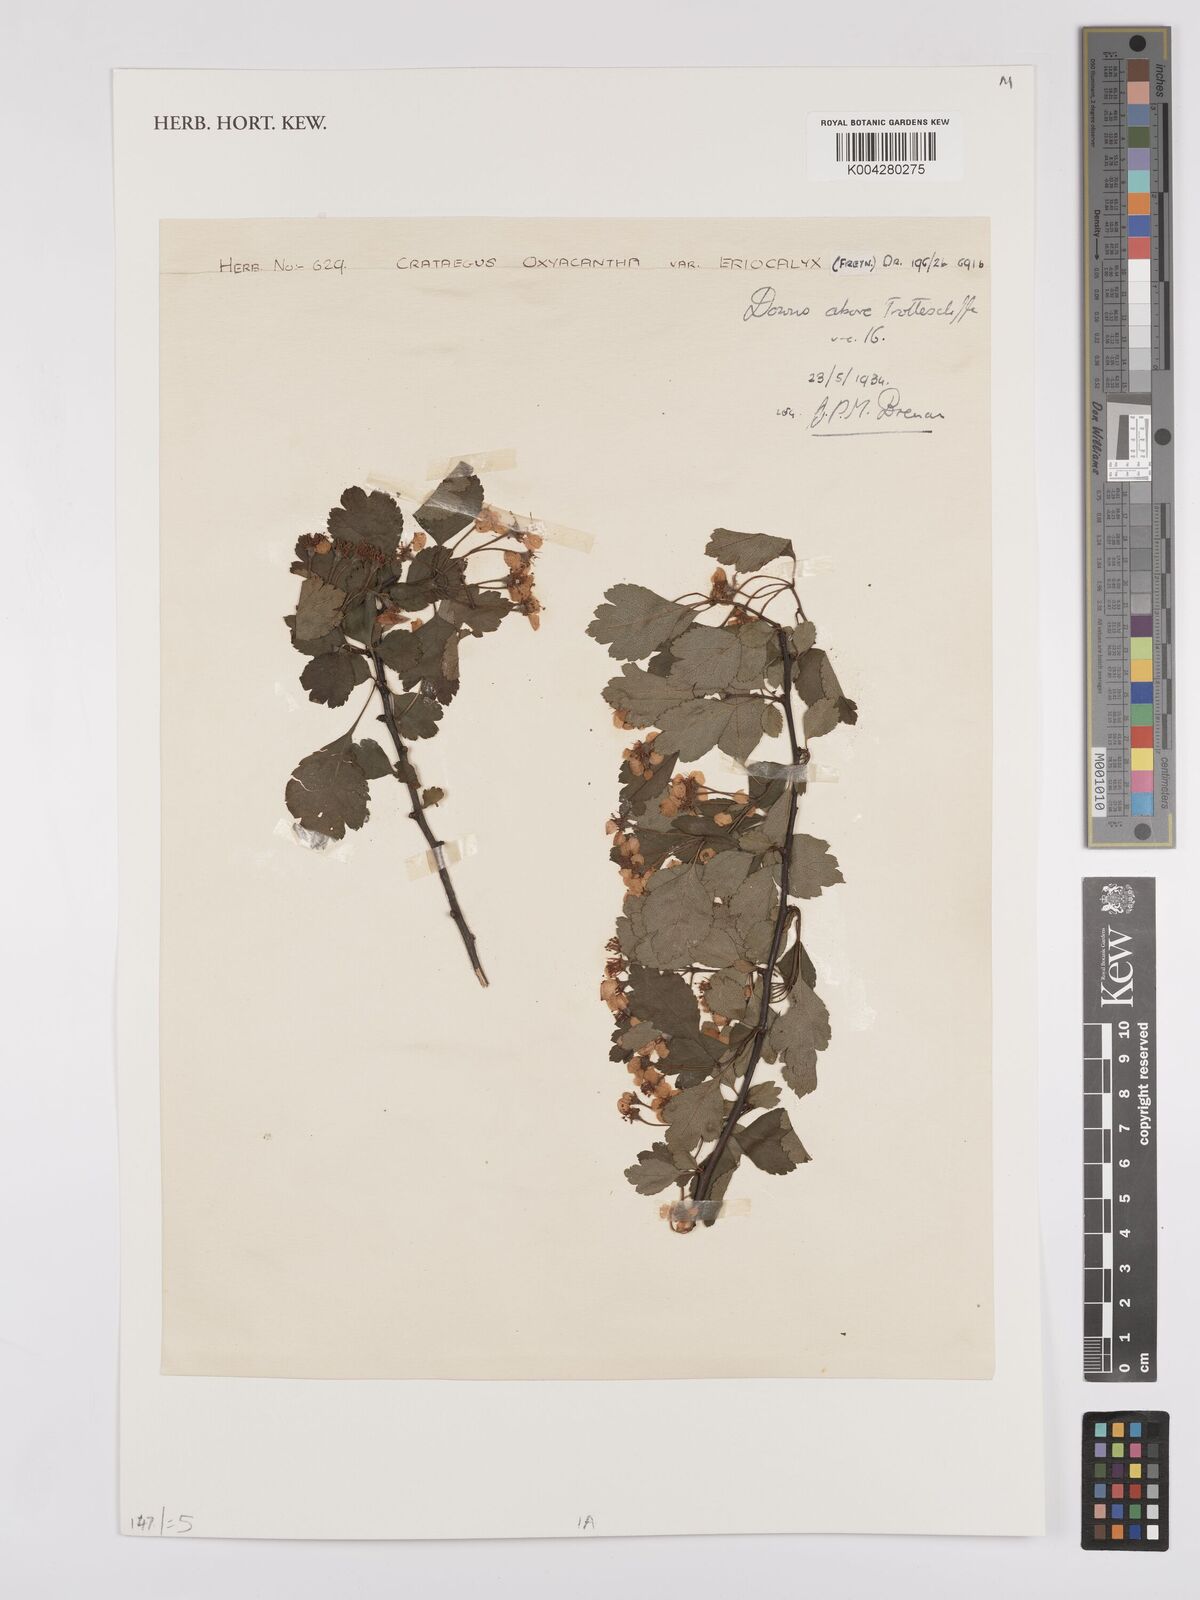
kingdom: Plantae
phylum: Tracheophyta
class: Magnoliopsida
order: Rosales
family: Rosaceae
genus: Crataegus
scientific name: Crataegus laevigata
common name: Midland hawthorn
